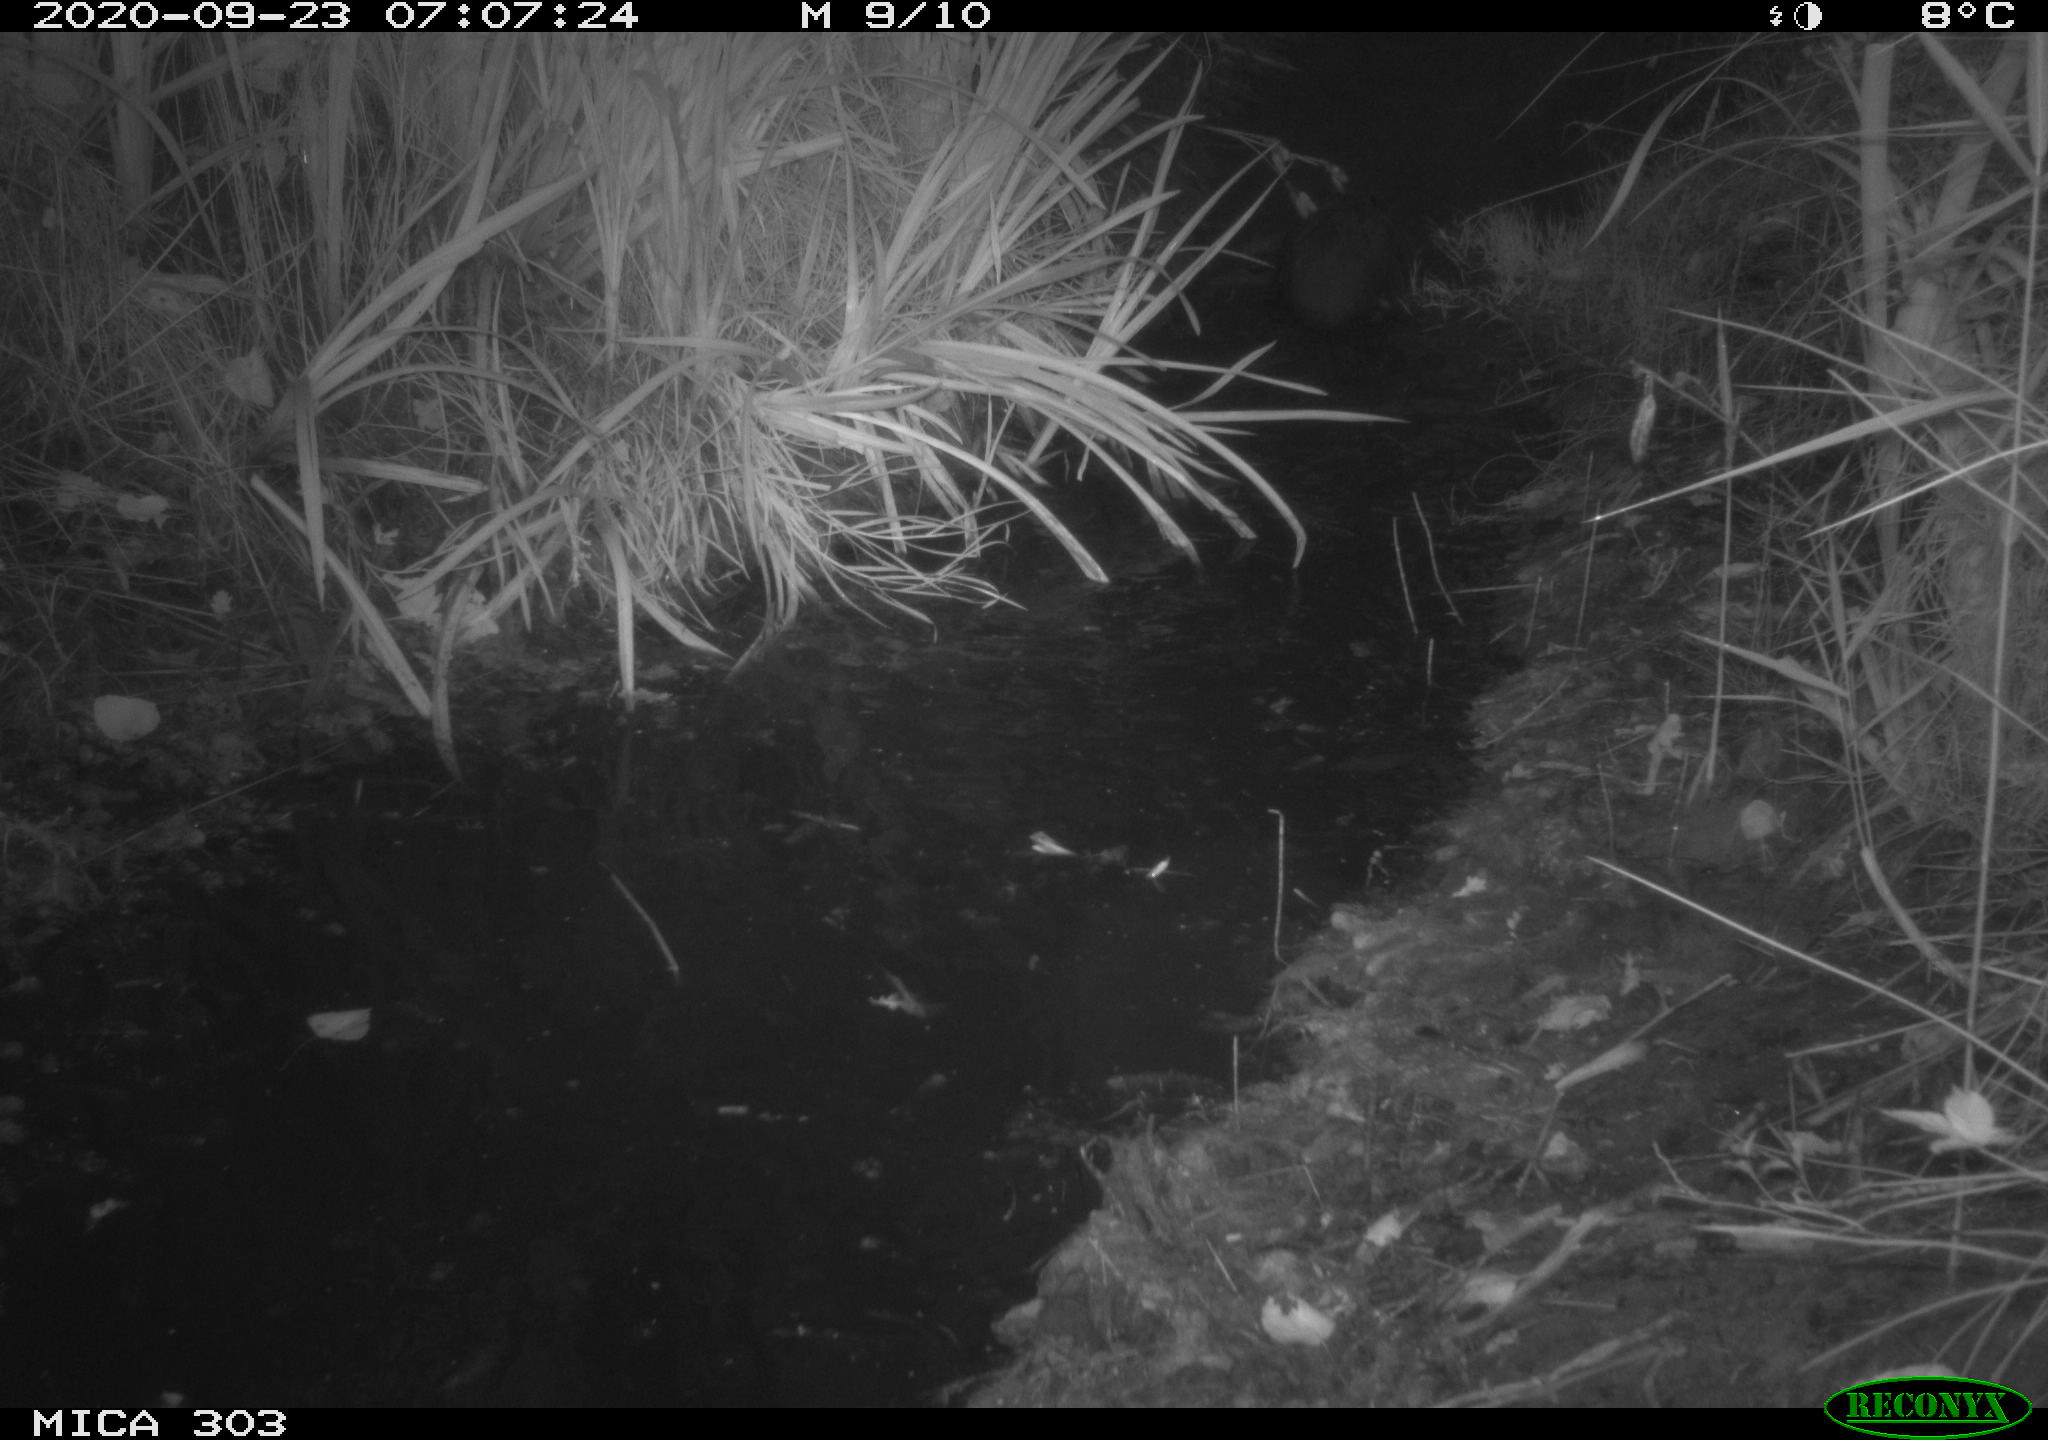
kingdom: Animalia
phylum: Chordata
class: Mammalia
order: Rodentia
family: Castoridae
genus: Castor
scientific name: Castor fiber
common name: Eurasian beaver
